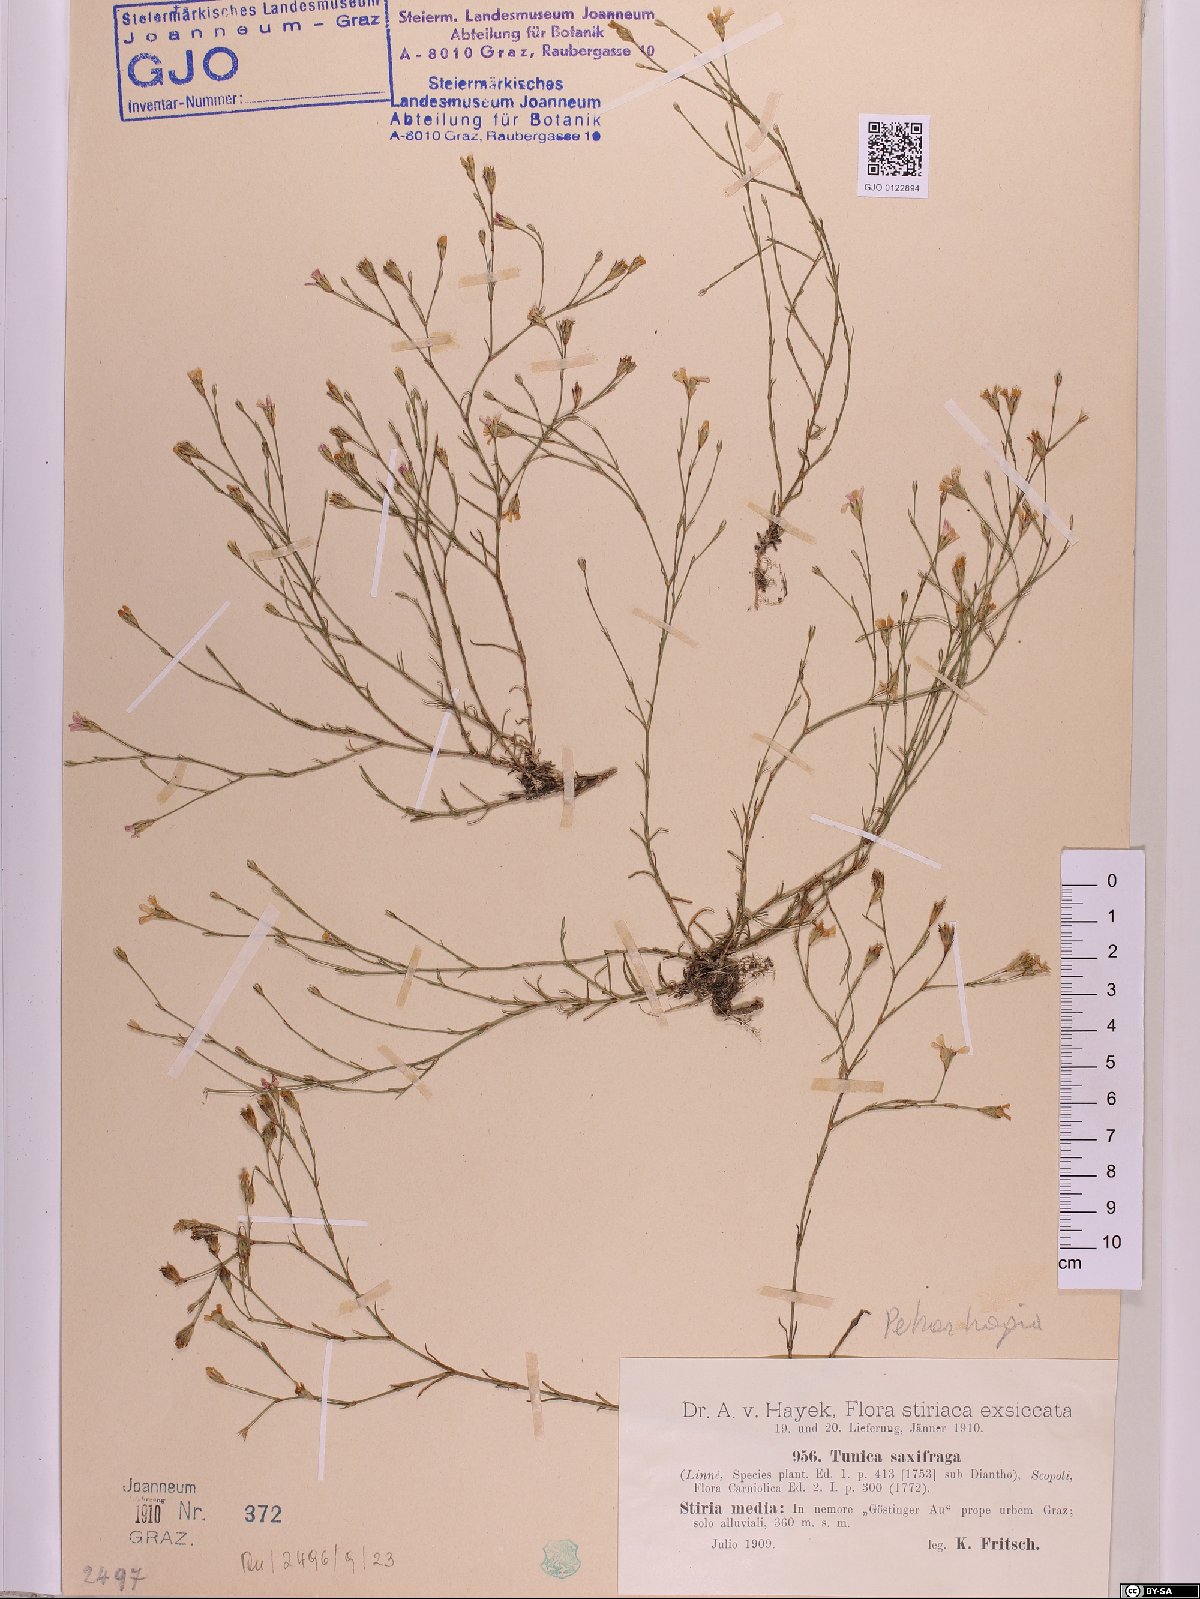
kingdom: Plantae
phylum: Tracheophyta
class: Magnoliopsida
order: Caryophyllales
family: Caryophyllaceae
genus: Petrorhagia
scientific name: Petrorhagia saxifraga
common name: Tunicflower
